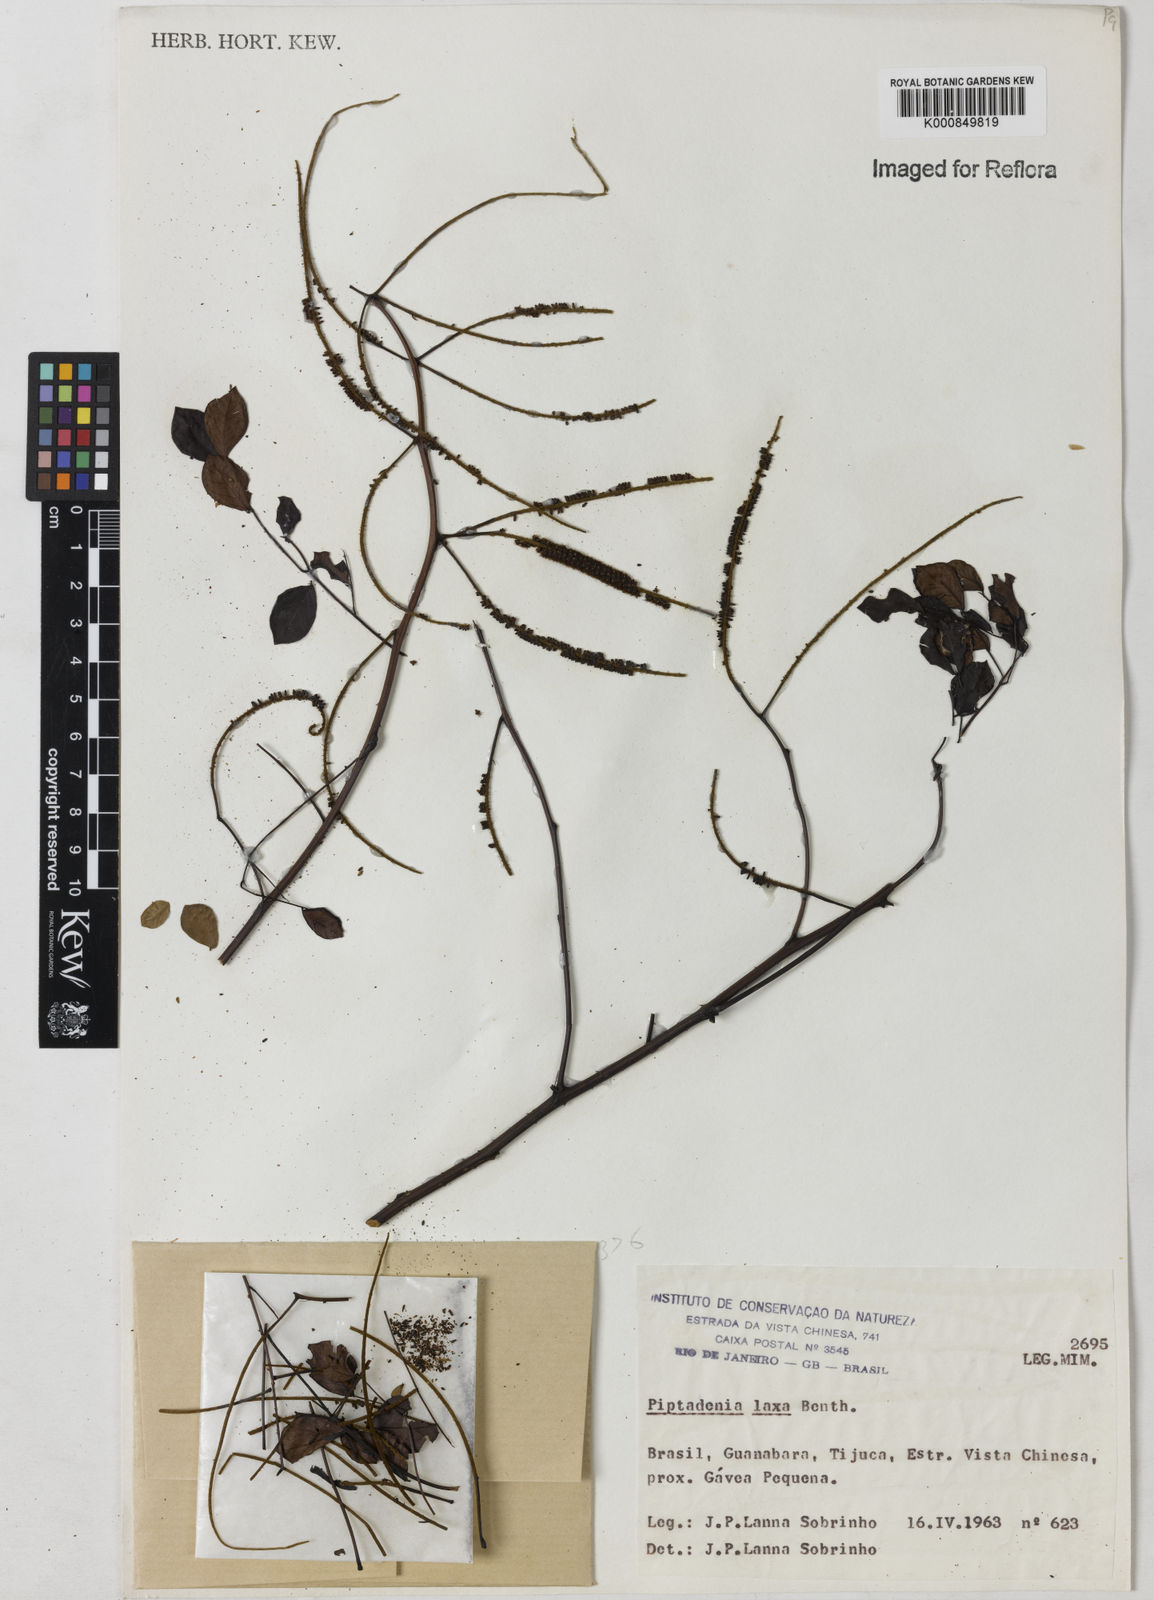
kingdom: Plantae
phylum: Tracheophyta
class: Magnoliopsida
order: Fabales
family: Fabaceae
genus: Piptadenia
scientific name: Piptadenia adiantoides
